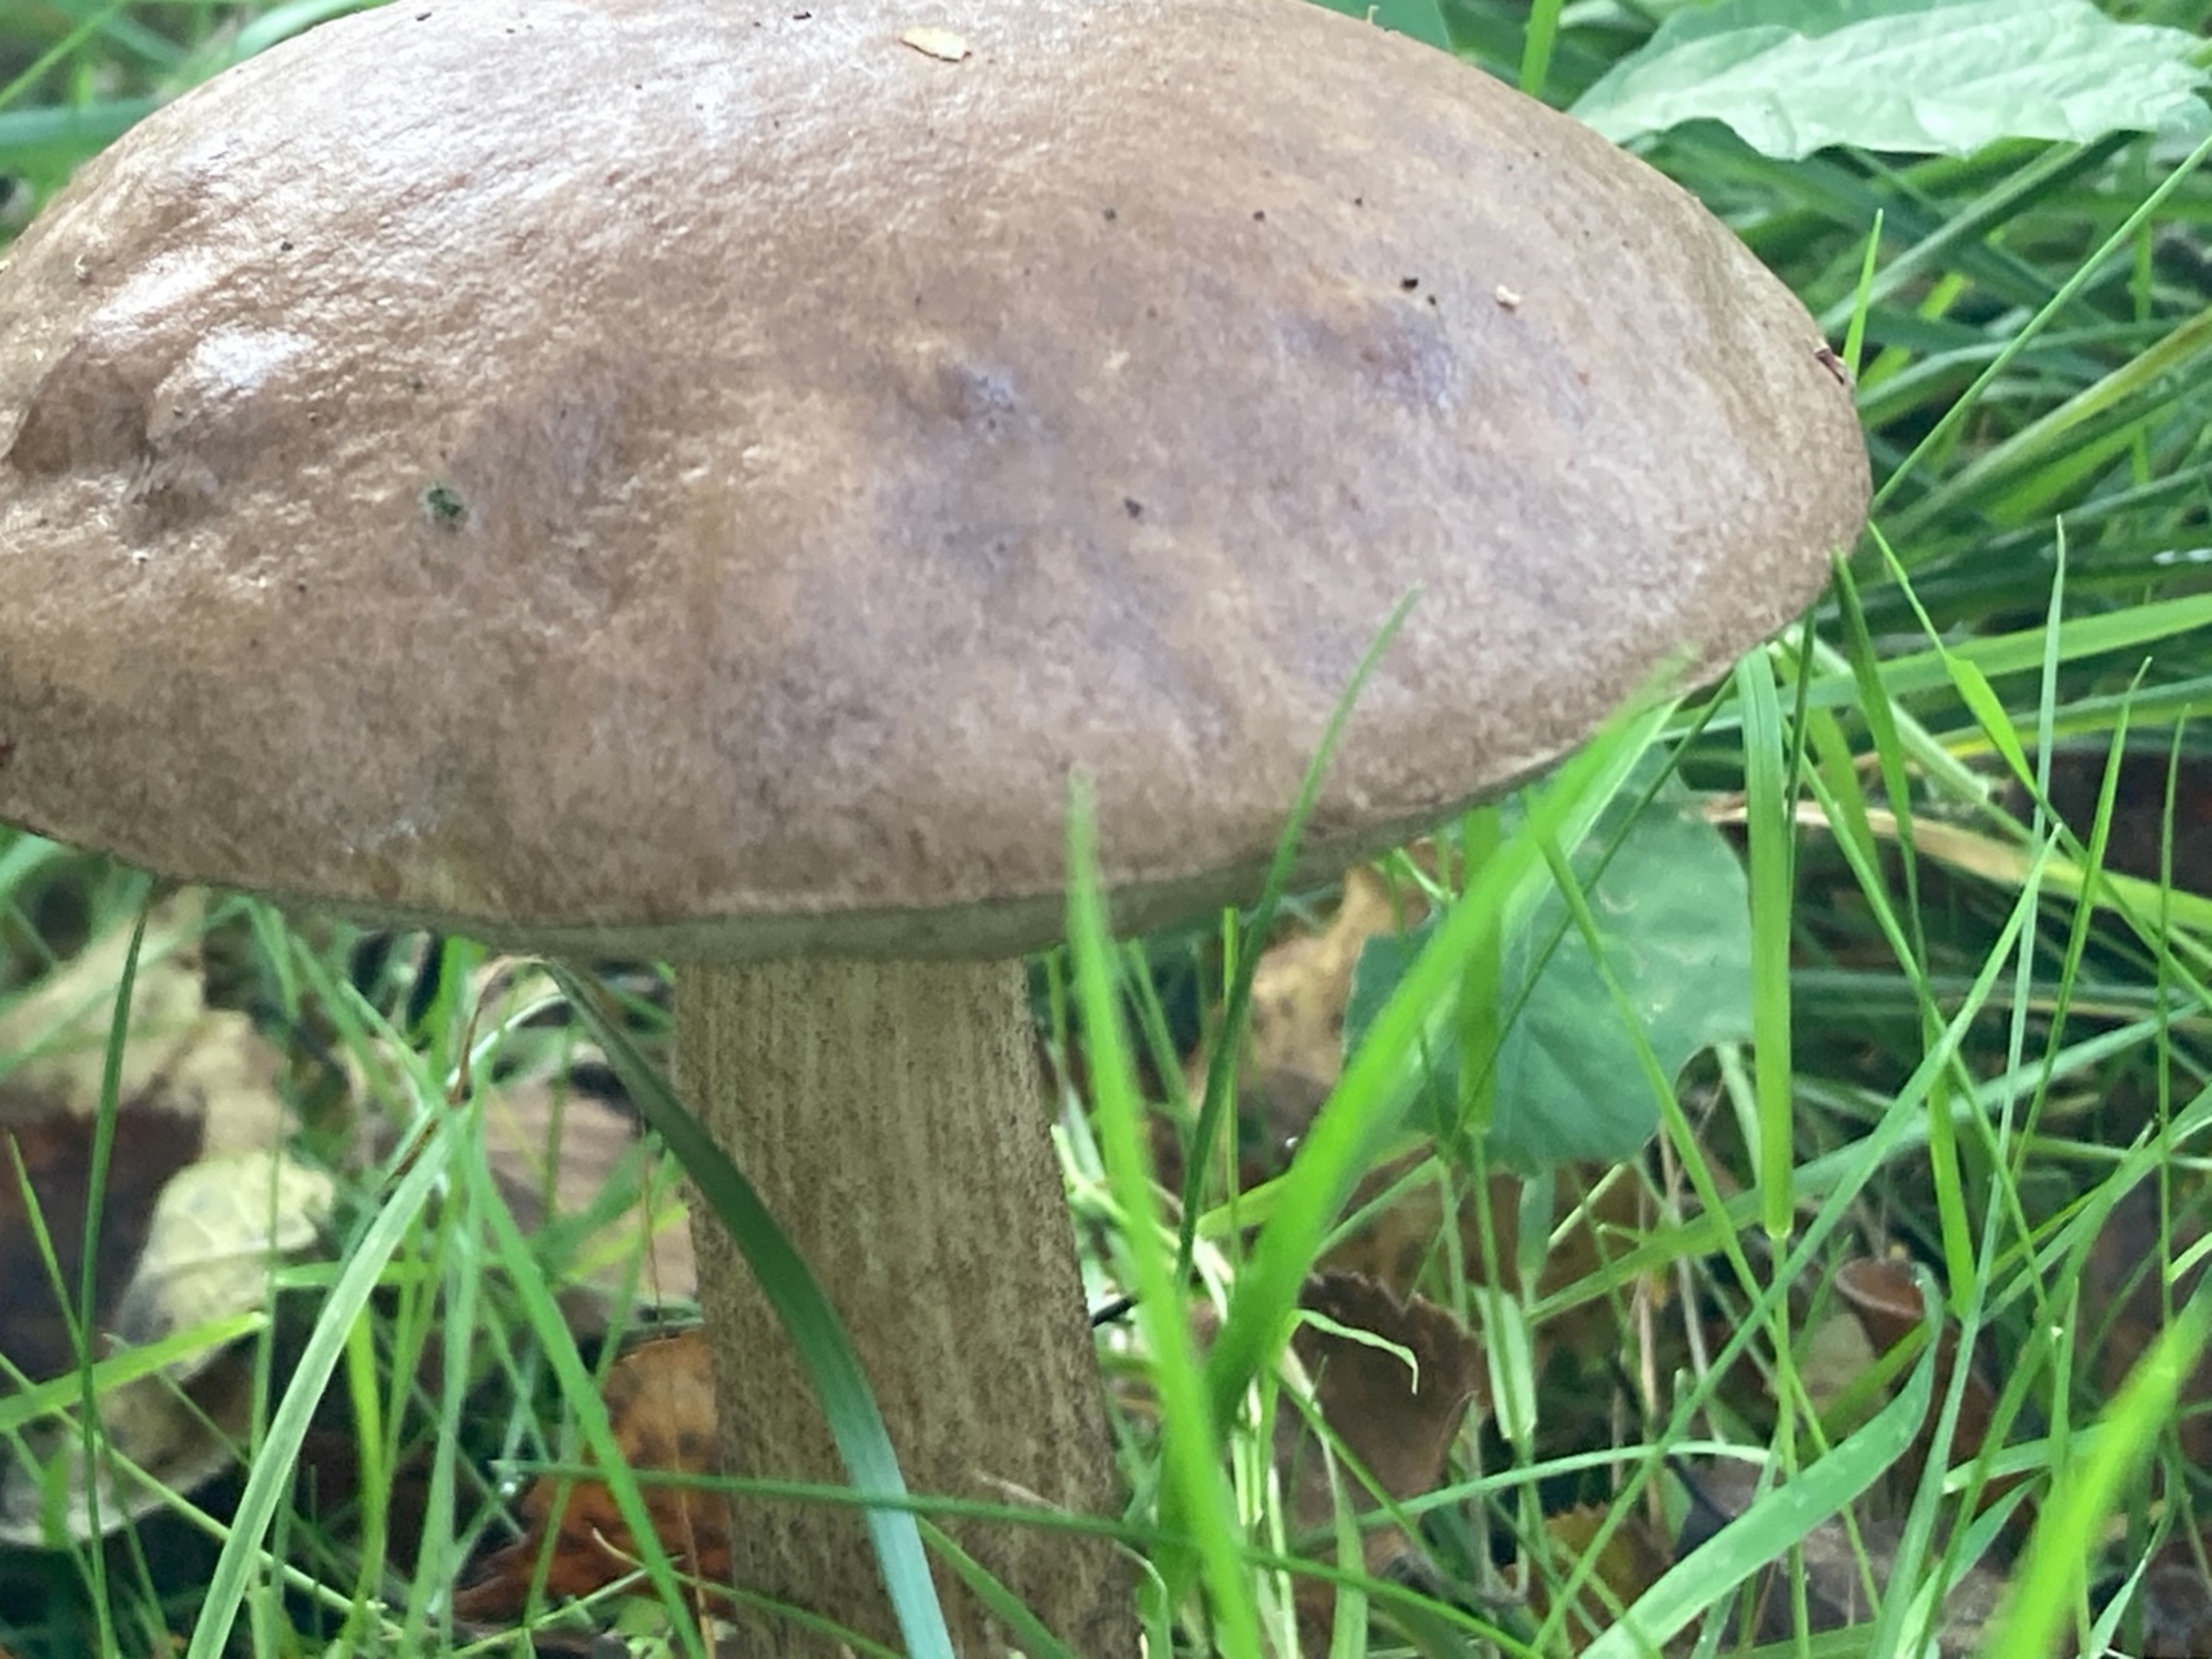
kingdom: Fungi
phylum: Basidiomycota
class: Agaricomycetes
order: Boletales
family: Boletaceae
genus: Leccinum
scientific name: Leccinum
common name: Skælrørhat
